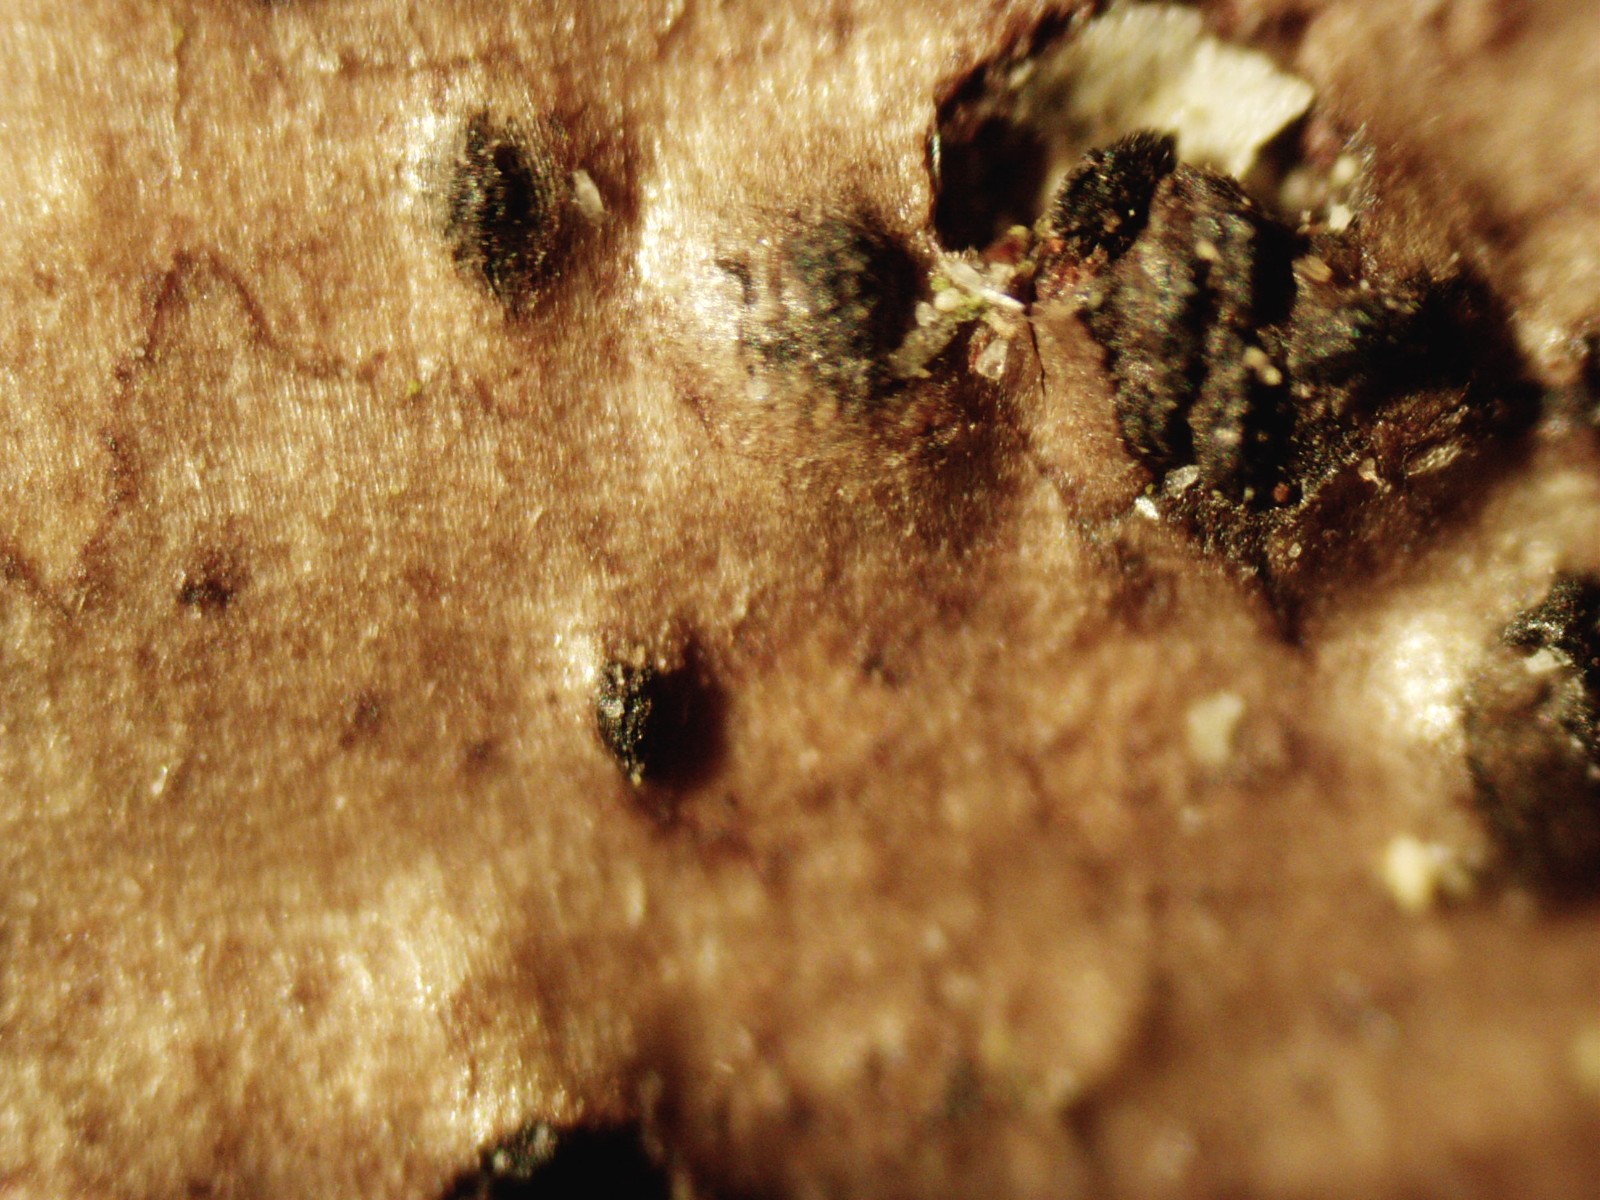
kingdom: Fungi
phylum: Ascomycota
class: Dothideomycetes
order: Pleosporales
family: Lophiostomataceae
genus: Lophiostoma
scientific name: Lophiostoma quadrinucleatum
